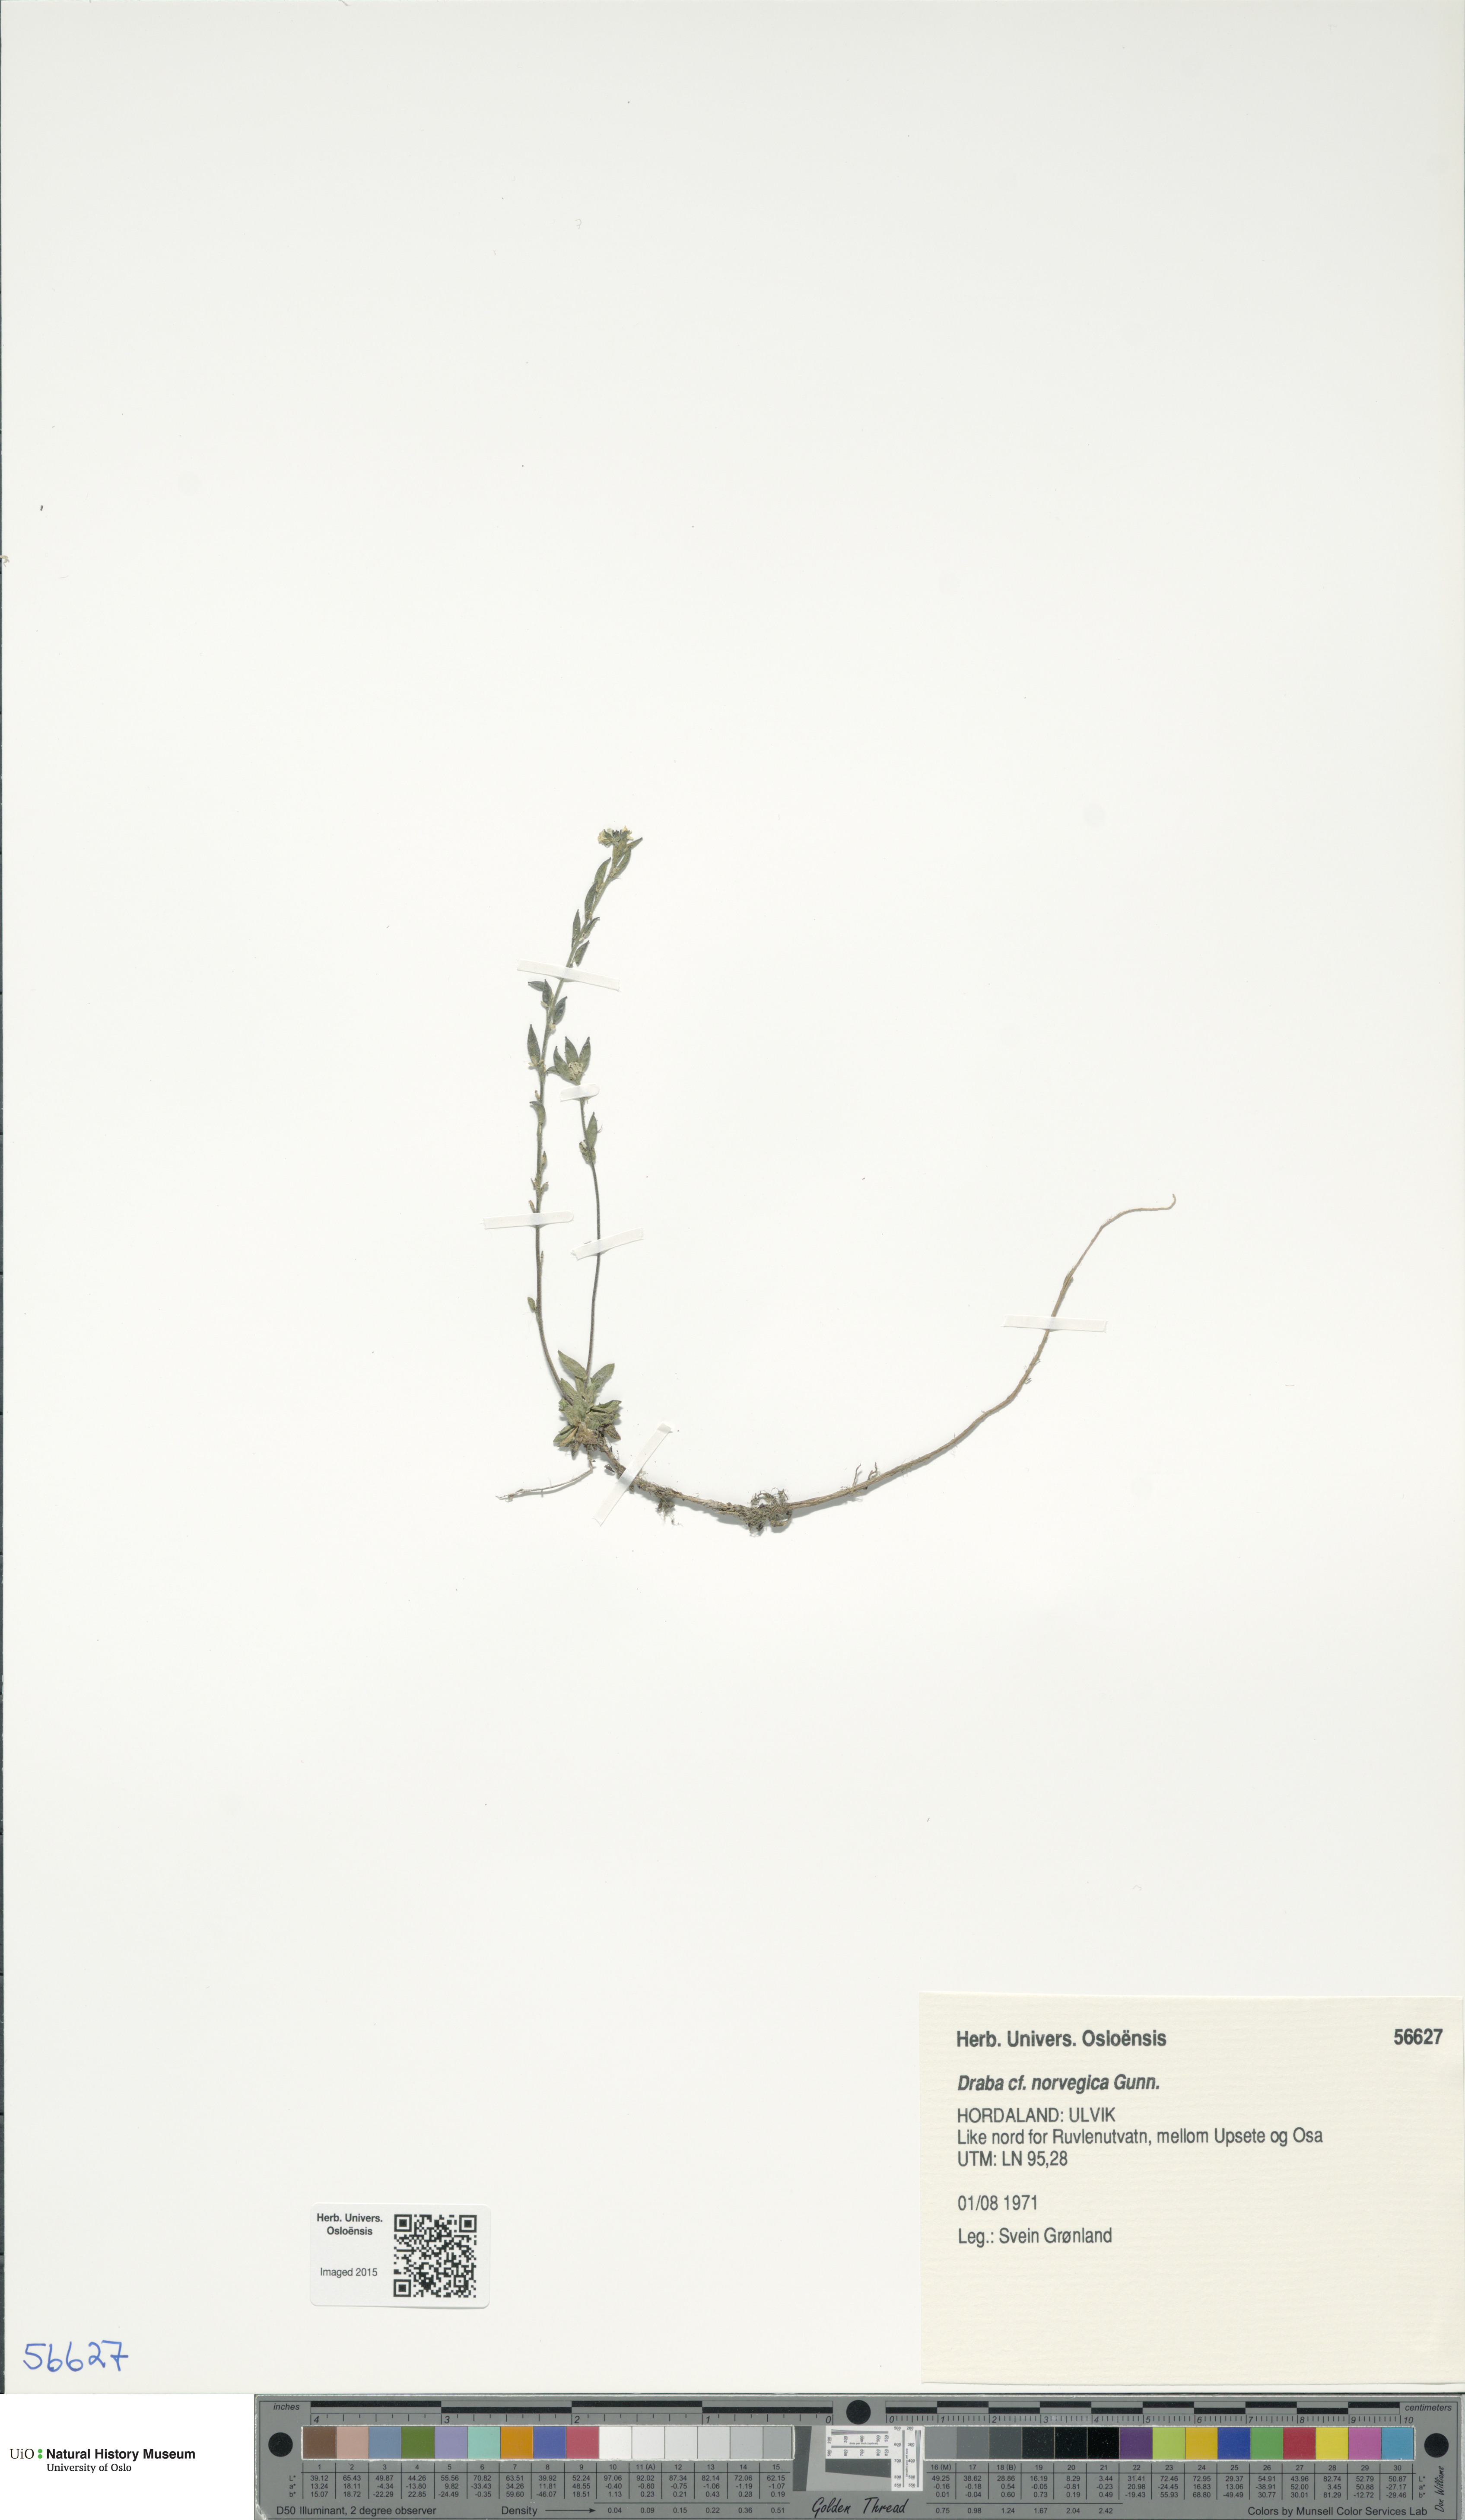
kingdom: Plantae
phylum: Tracheophyta
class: Magnoliopsida
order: Brassicales
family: Brassicaceae
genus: Draba
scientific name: Draba norvegica
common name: Rock whitlowgrass
